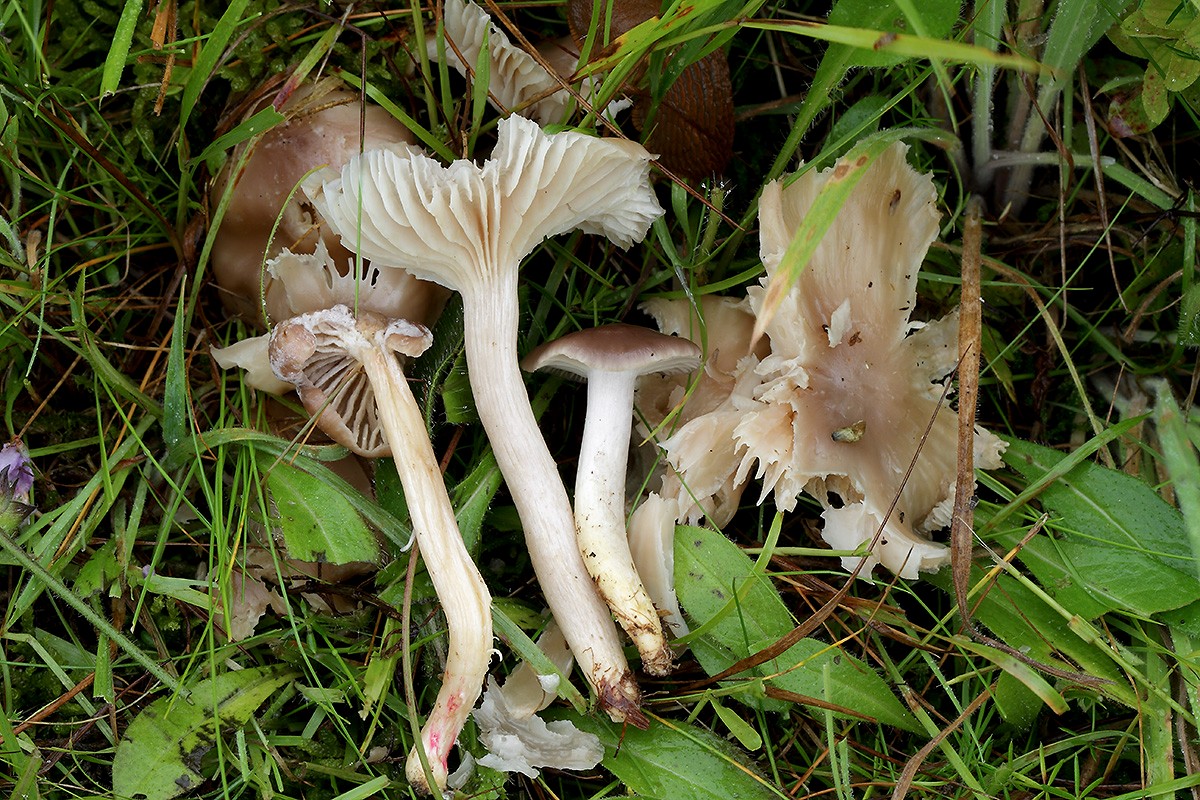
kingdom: Fungi
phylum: Basidiomycota
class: Agaricomycetes
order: Agaricales
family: Hygrophoraceae
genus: Cuphophyllus
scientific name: Cuphophyllus flavipes
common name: gulfodet vokshat
